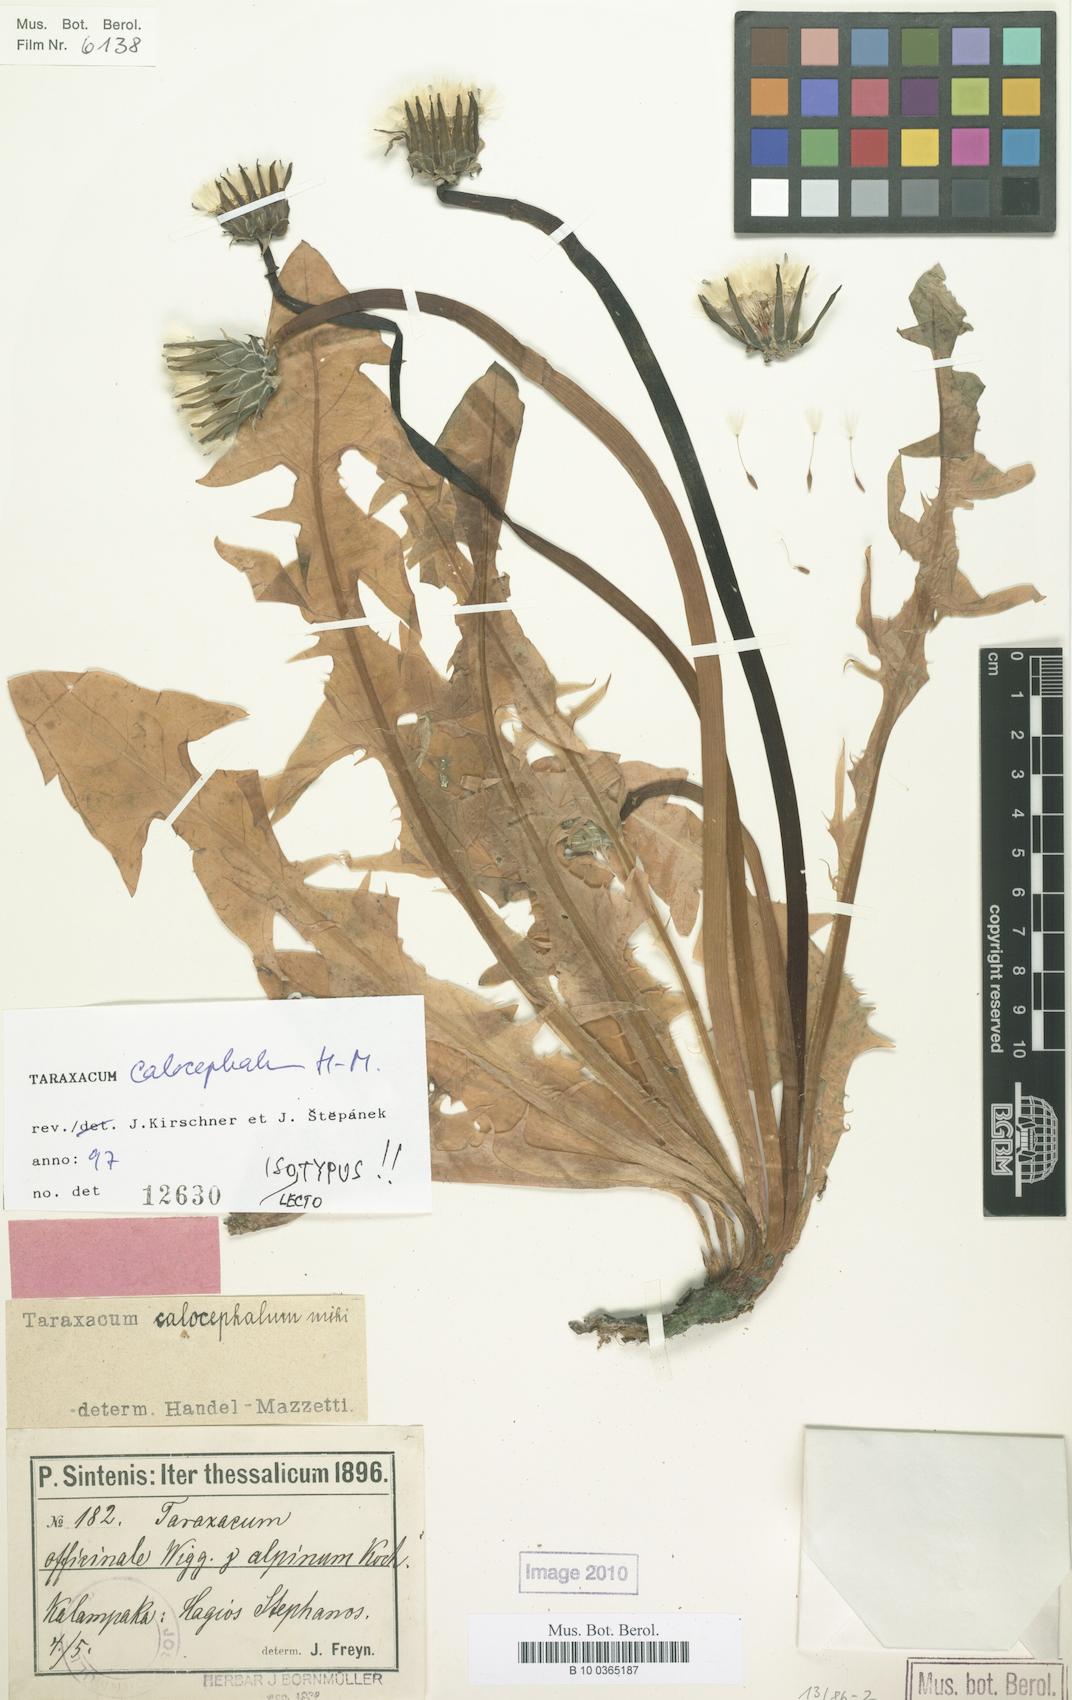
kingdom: Plantae
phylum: Tracheophyta
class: Magnoliopsida
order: Asterales
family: Asteraceae
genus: Taraxacum
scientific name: Taraxacum calocephalum
